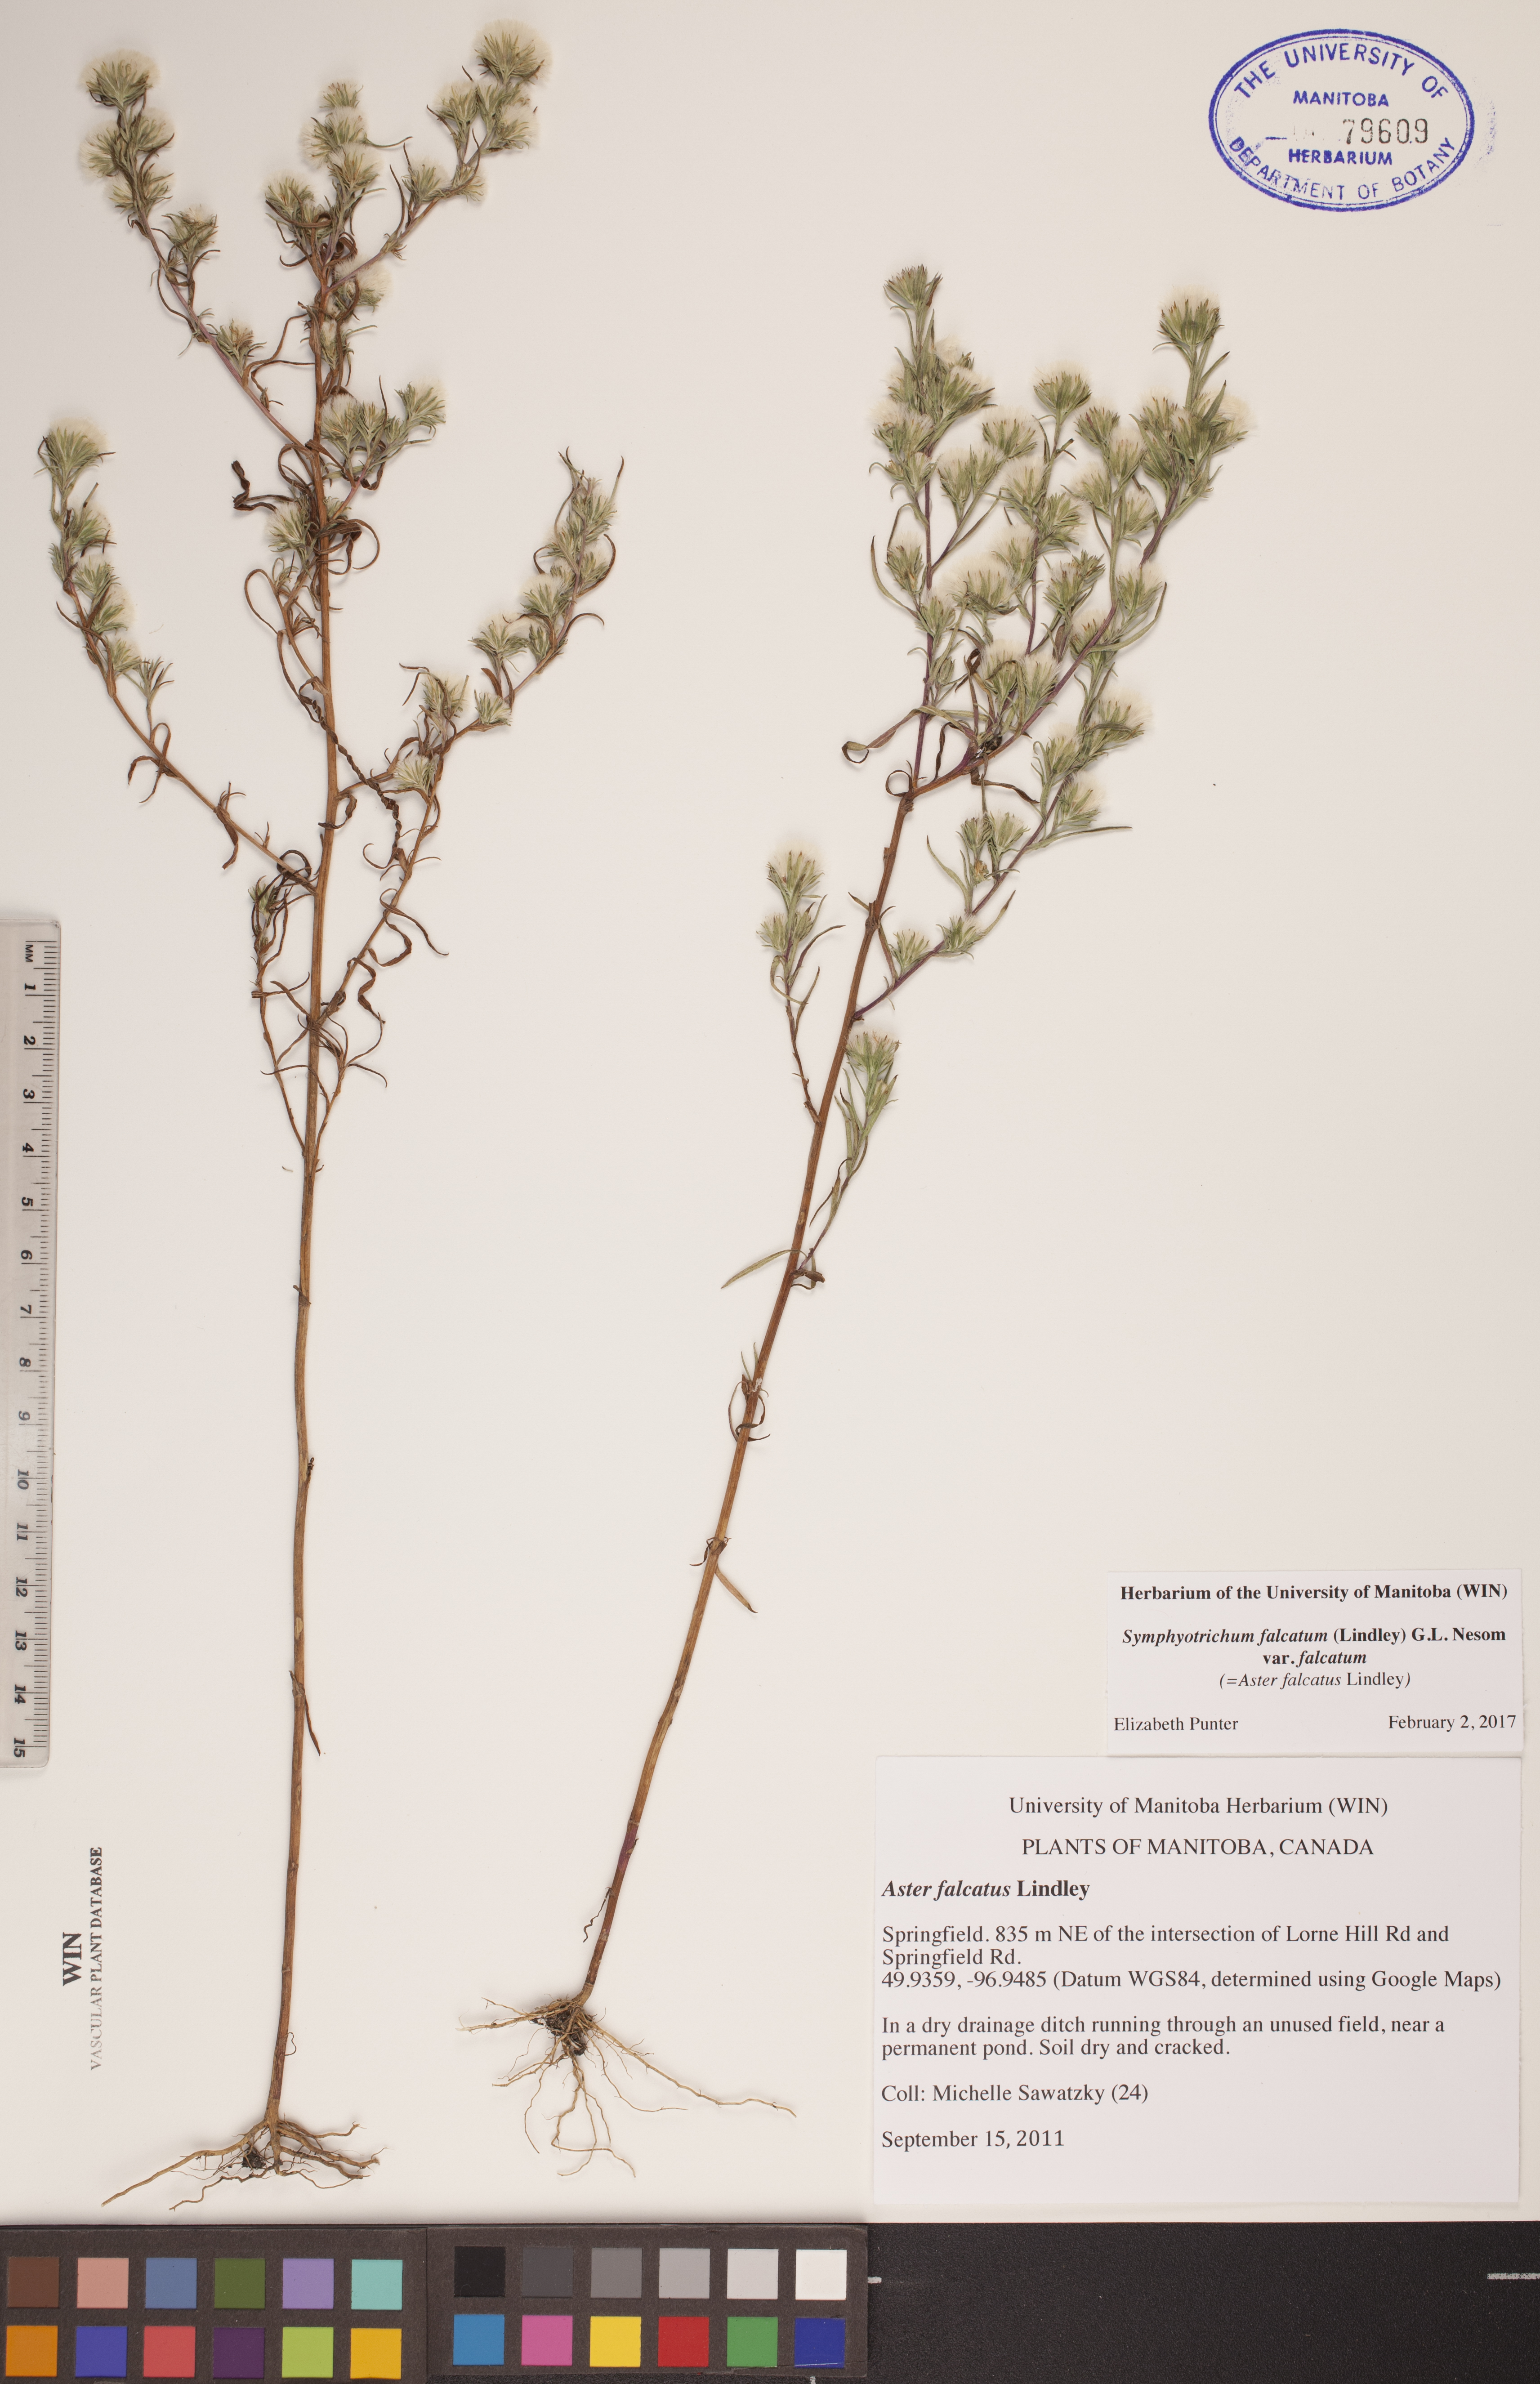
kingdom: Plantae
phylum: Tracheophyta
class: Magnoliopsida
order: Asterales
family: Asteraceae
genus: Symphyotrichum
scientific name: Symphyotrichum falcatum
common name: Creeping white prairie aster
